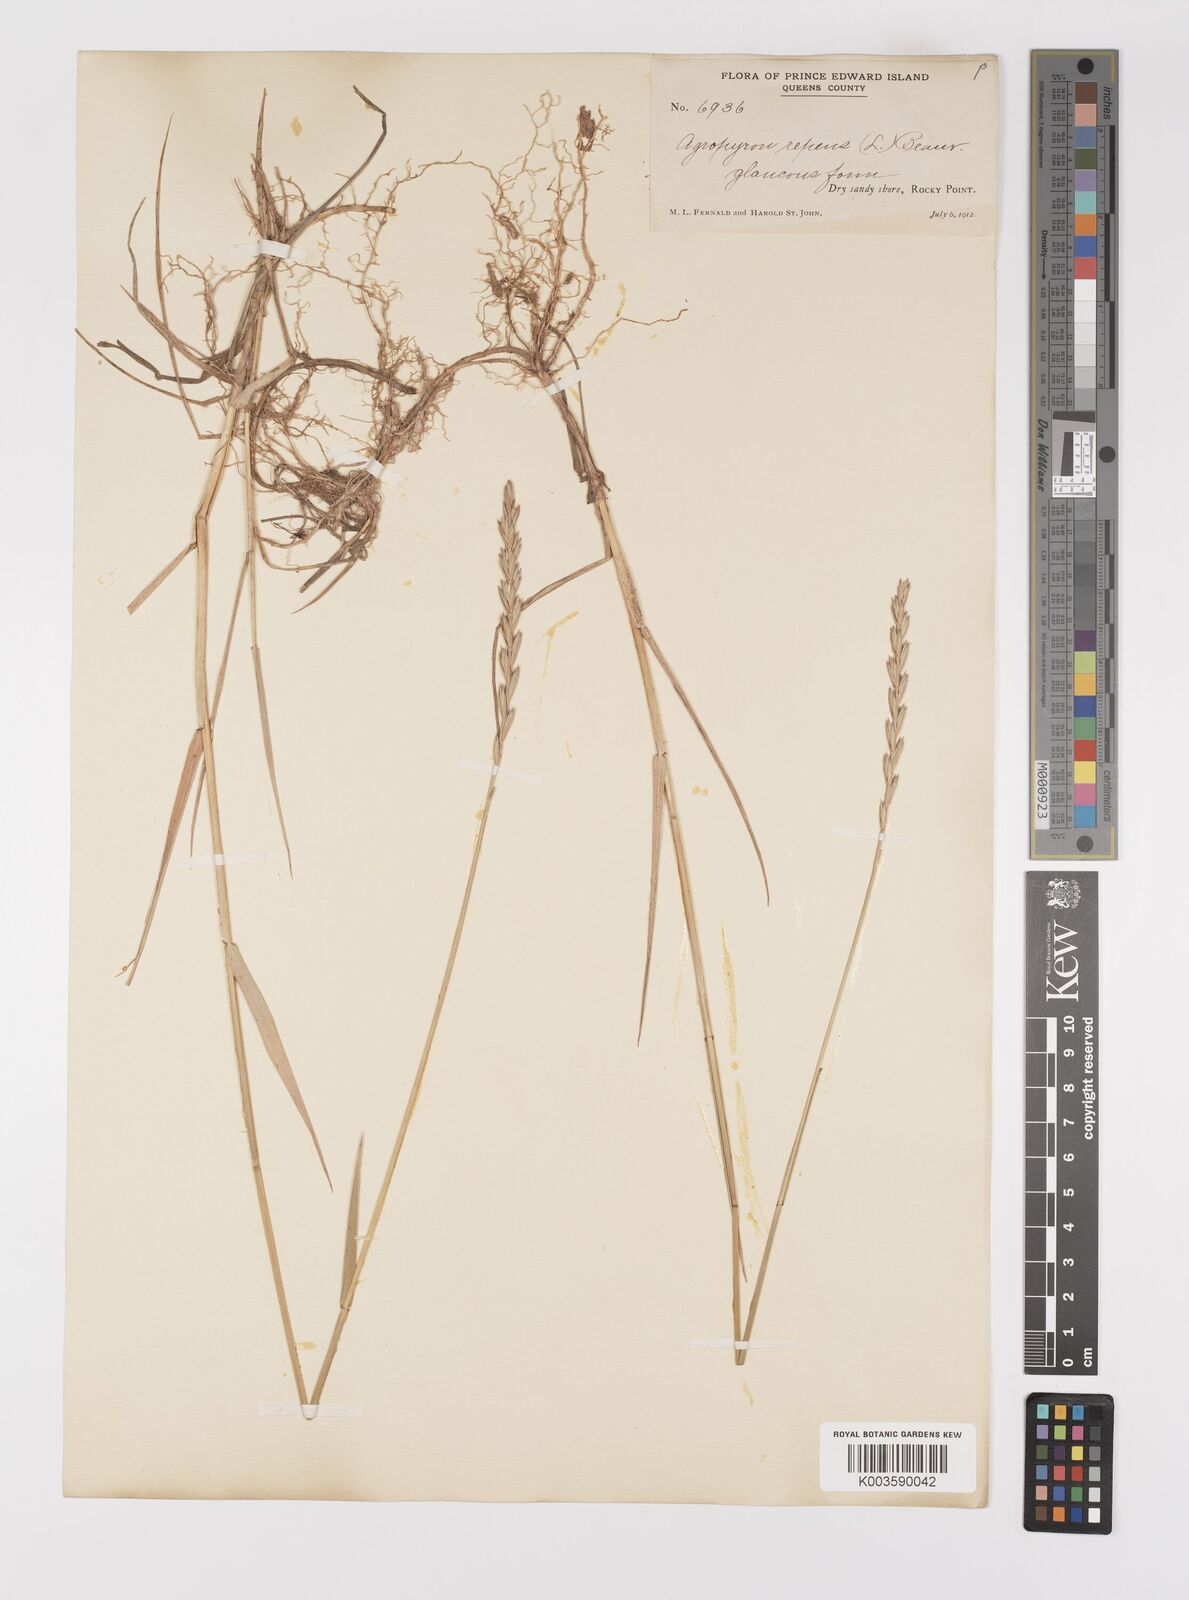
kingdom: Plantae
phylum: Tracheophyta
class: Liliopsida
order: Poales
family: Poaceae
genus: Elymus
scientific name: Elymus repens
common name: Quackgrass
